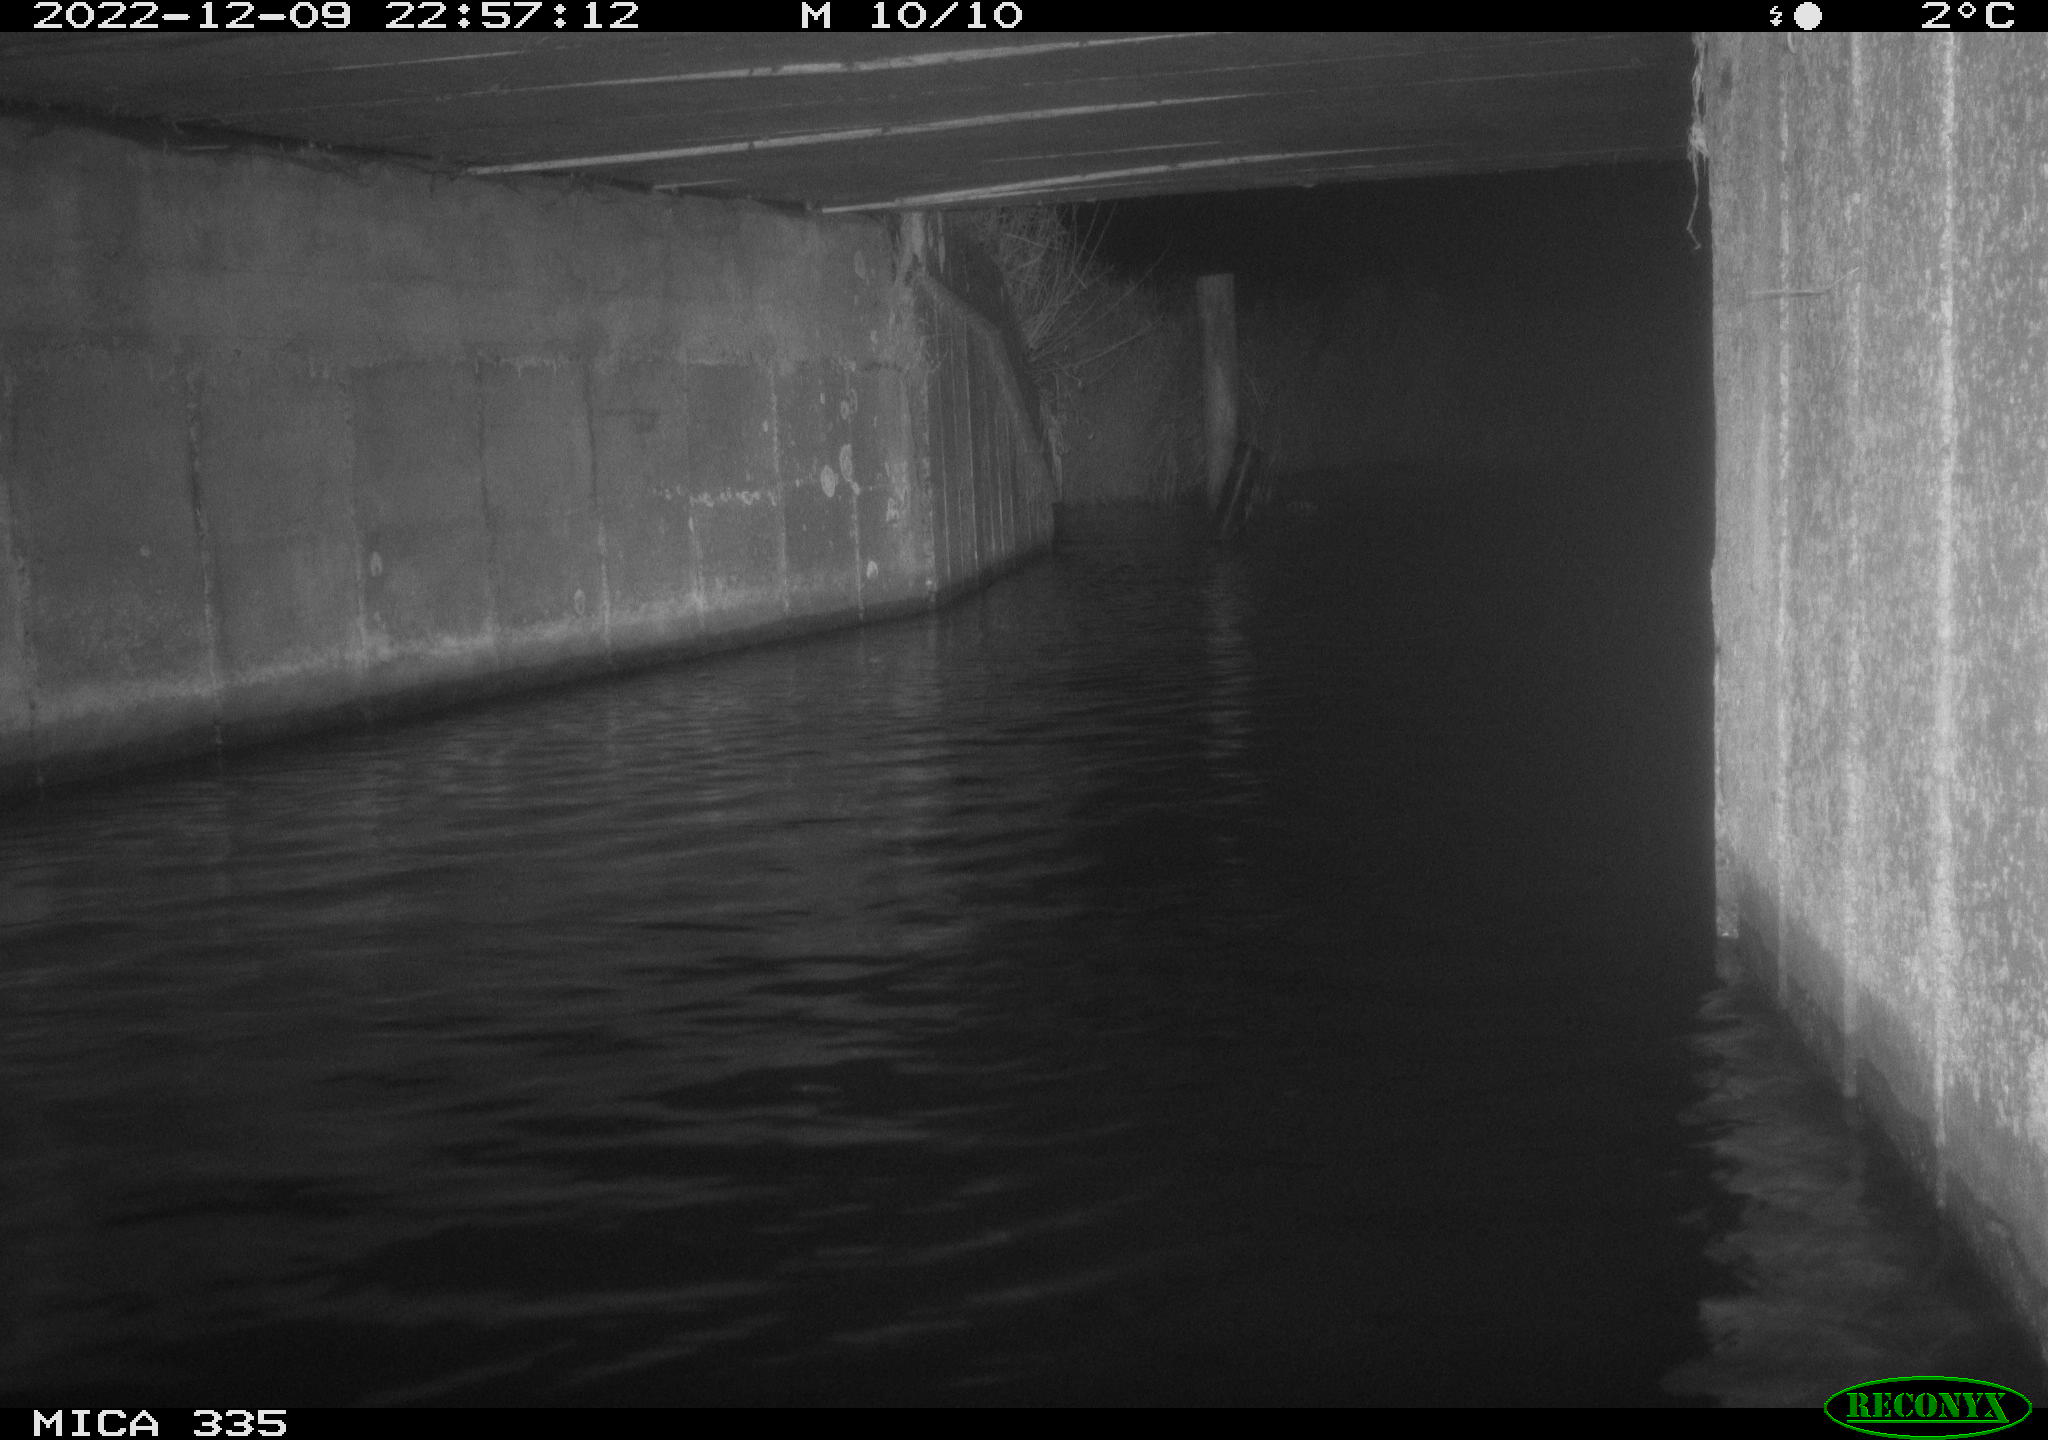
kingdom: Animalia
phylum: Chordata
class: Aves
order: Anseriformes
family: Anatidae
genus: Cygnus
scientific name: Cygnus olor
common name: Mute swan
